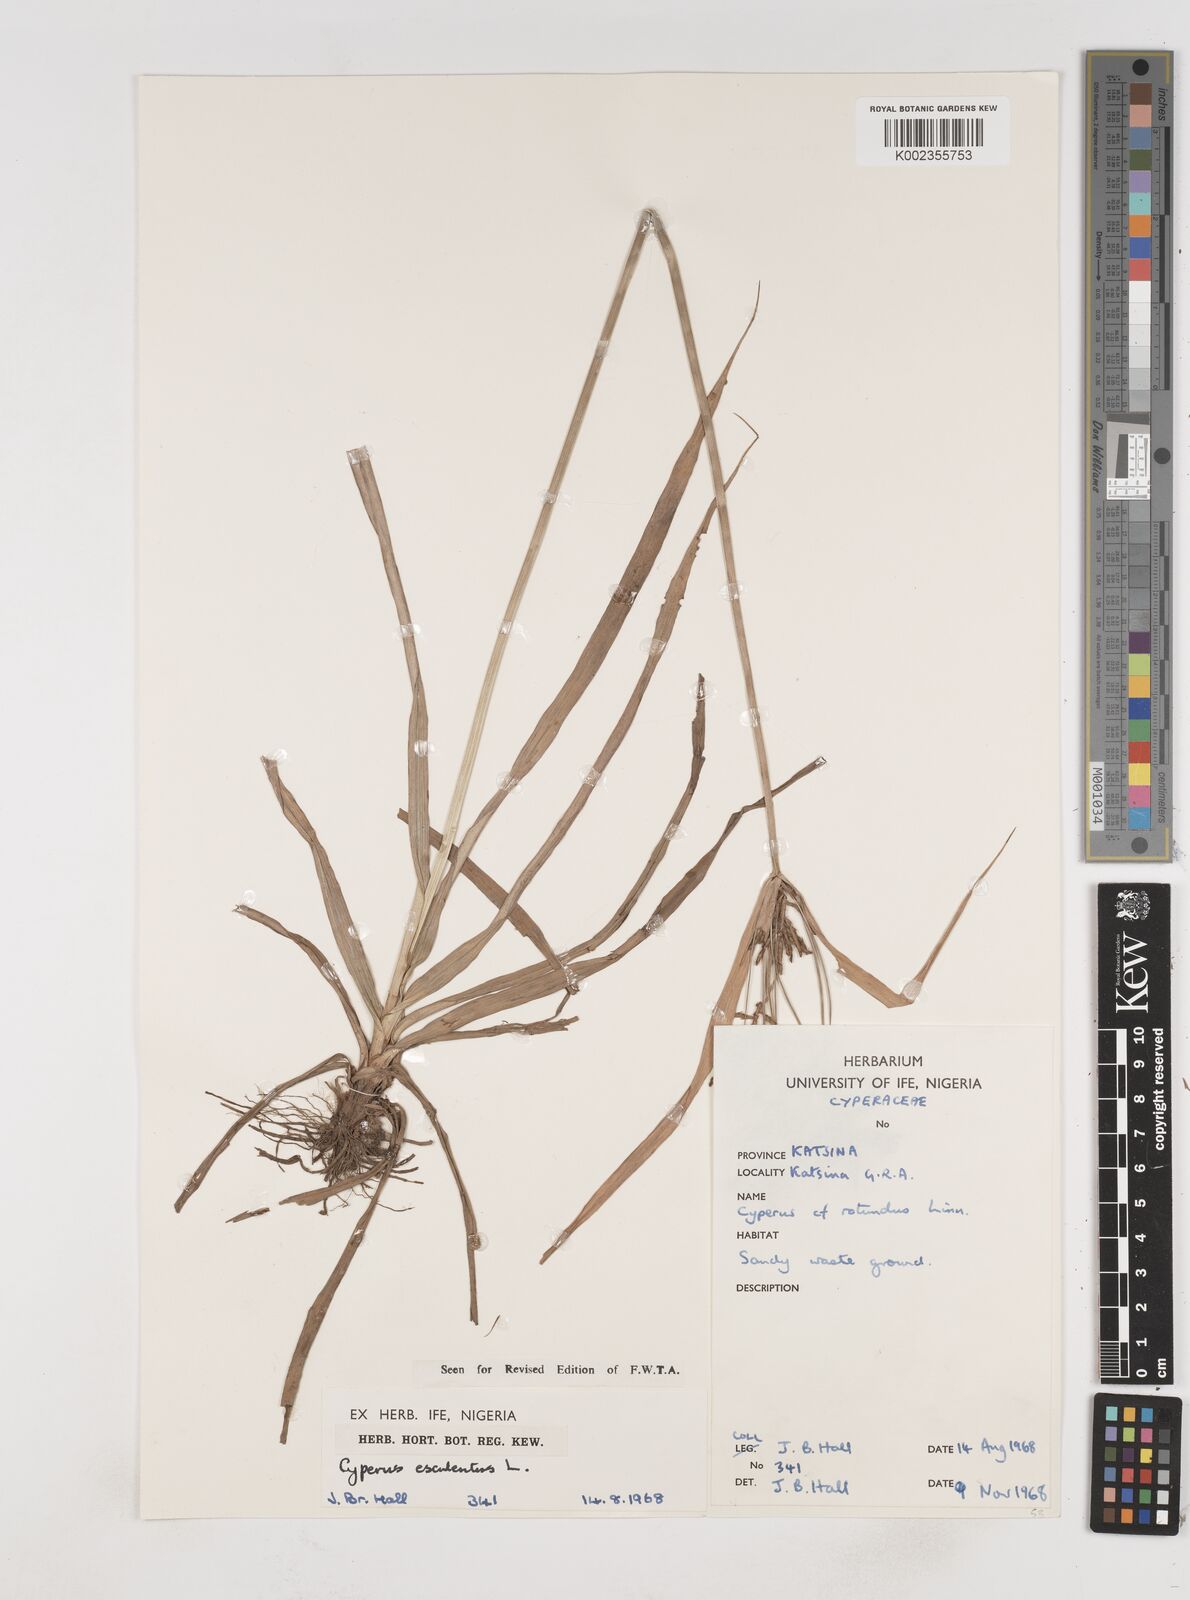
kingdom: Plantae
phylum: Tracheophyta
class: Liliopsida
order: Poales
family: Cyperaceae
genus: Cyperus
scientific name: Cyperus esculentus
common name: Yellow nutsedge
